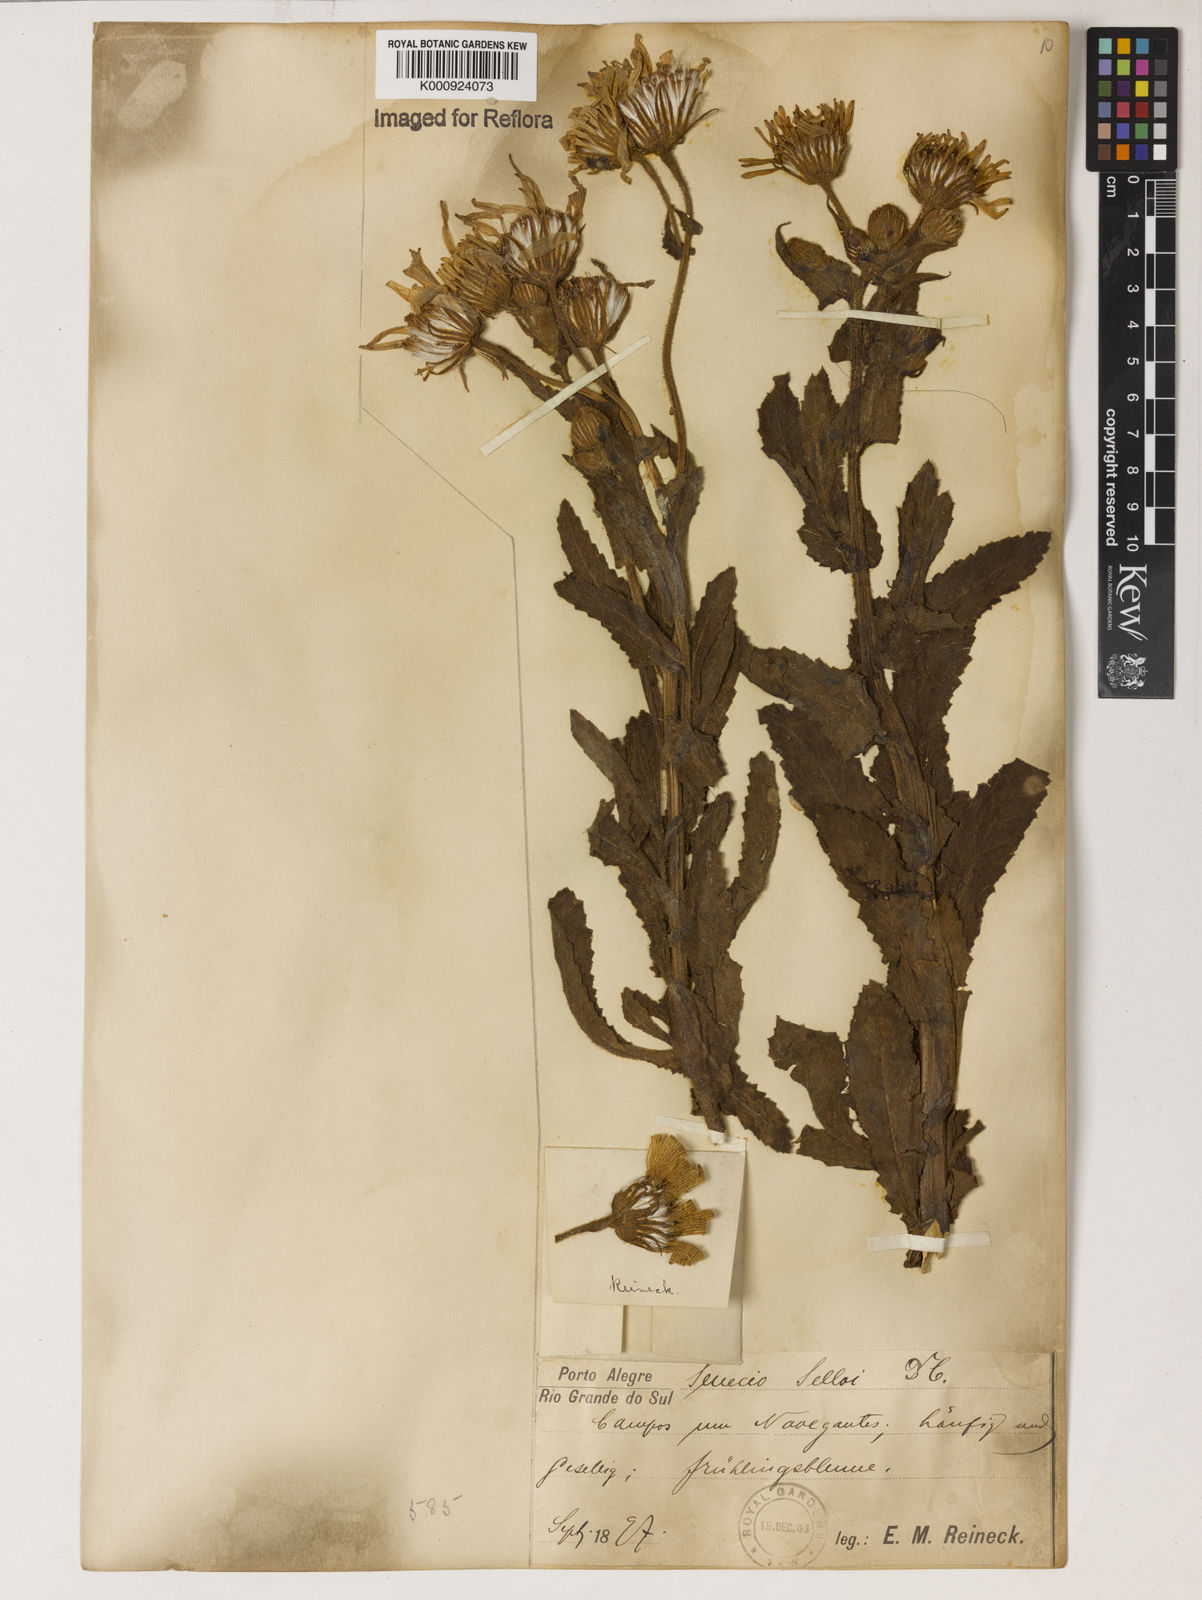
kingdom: Plantae
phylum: Tracheophyta
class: Magnoliopsida
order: Asterales
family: Asteraceae
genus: Senecio
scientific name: Senecio selloi
